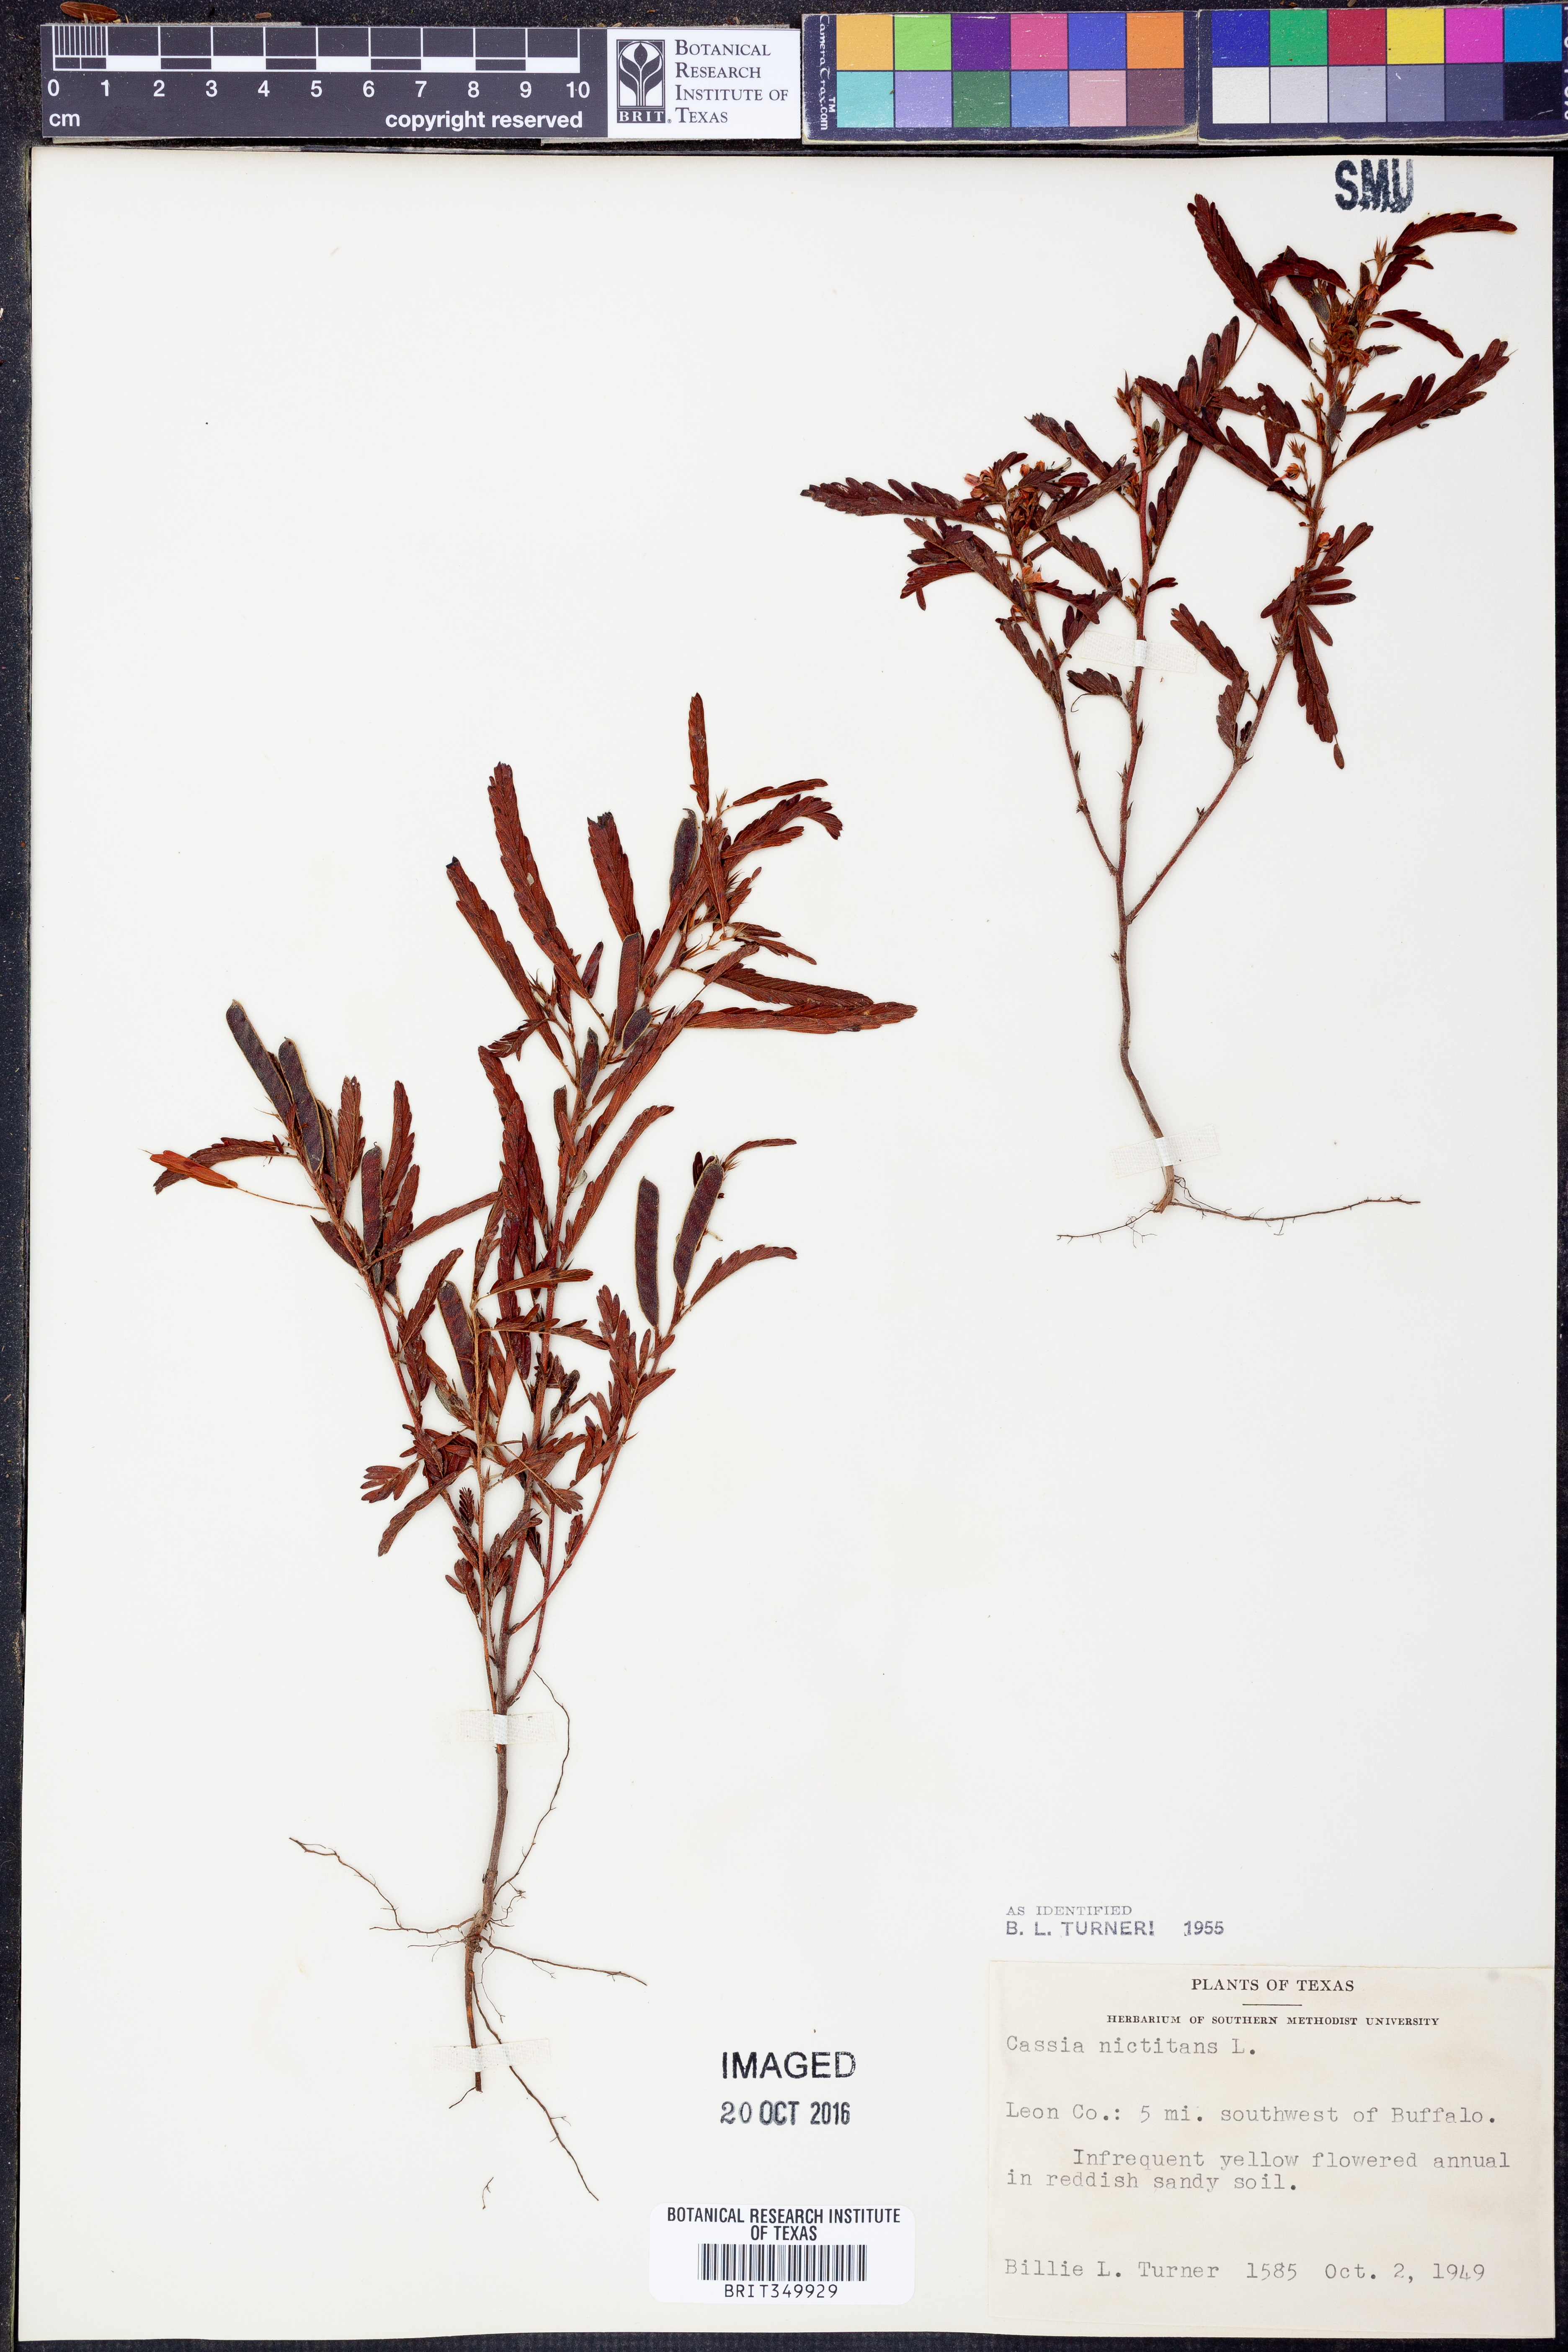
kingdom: Plantae
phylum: Tracheophyta
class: Magnoliopsida
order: Fabales
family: Fabaceae
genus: Chamaecrista
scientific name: Chamaecrista nictitans
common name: Sensitive cassia
